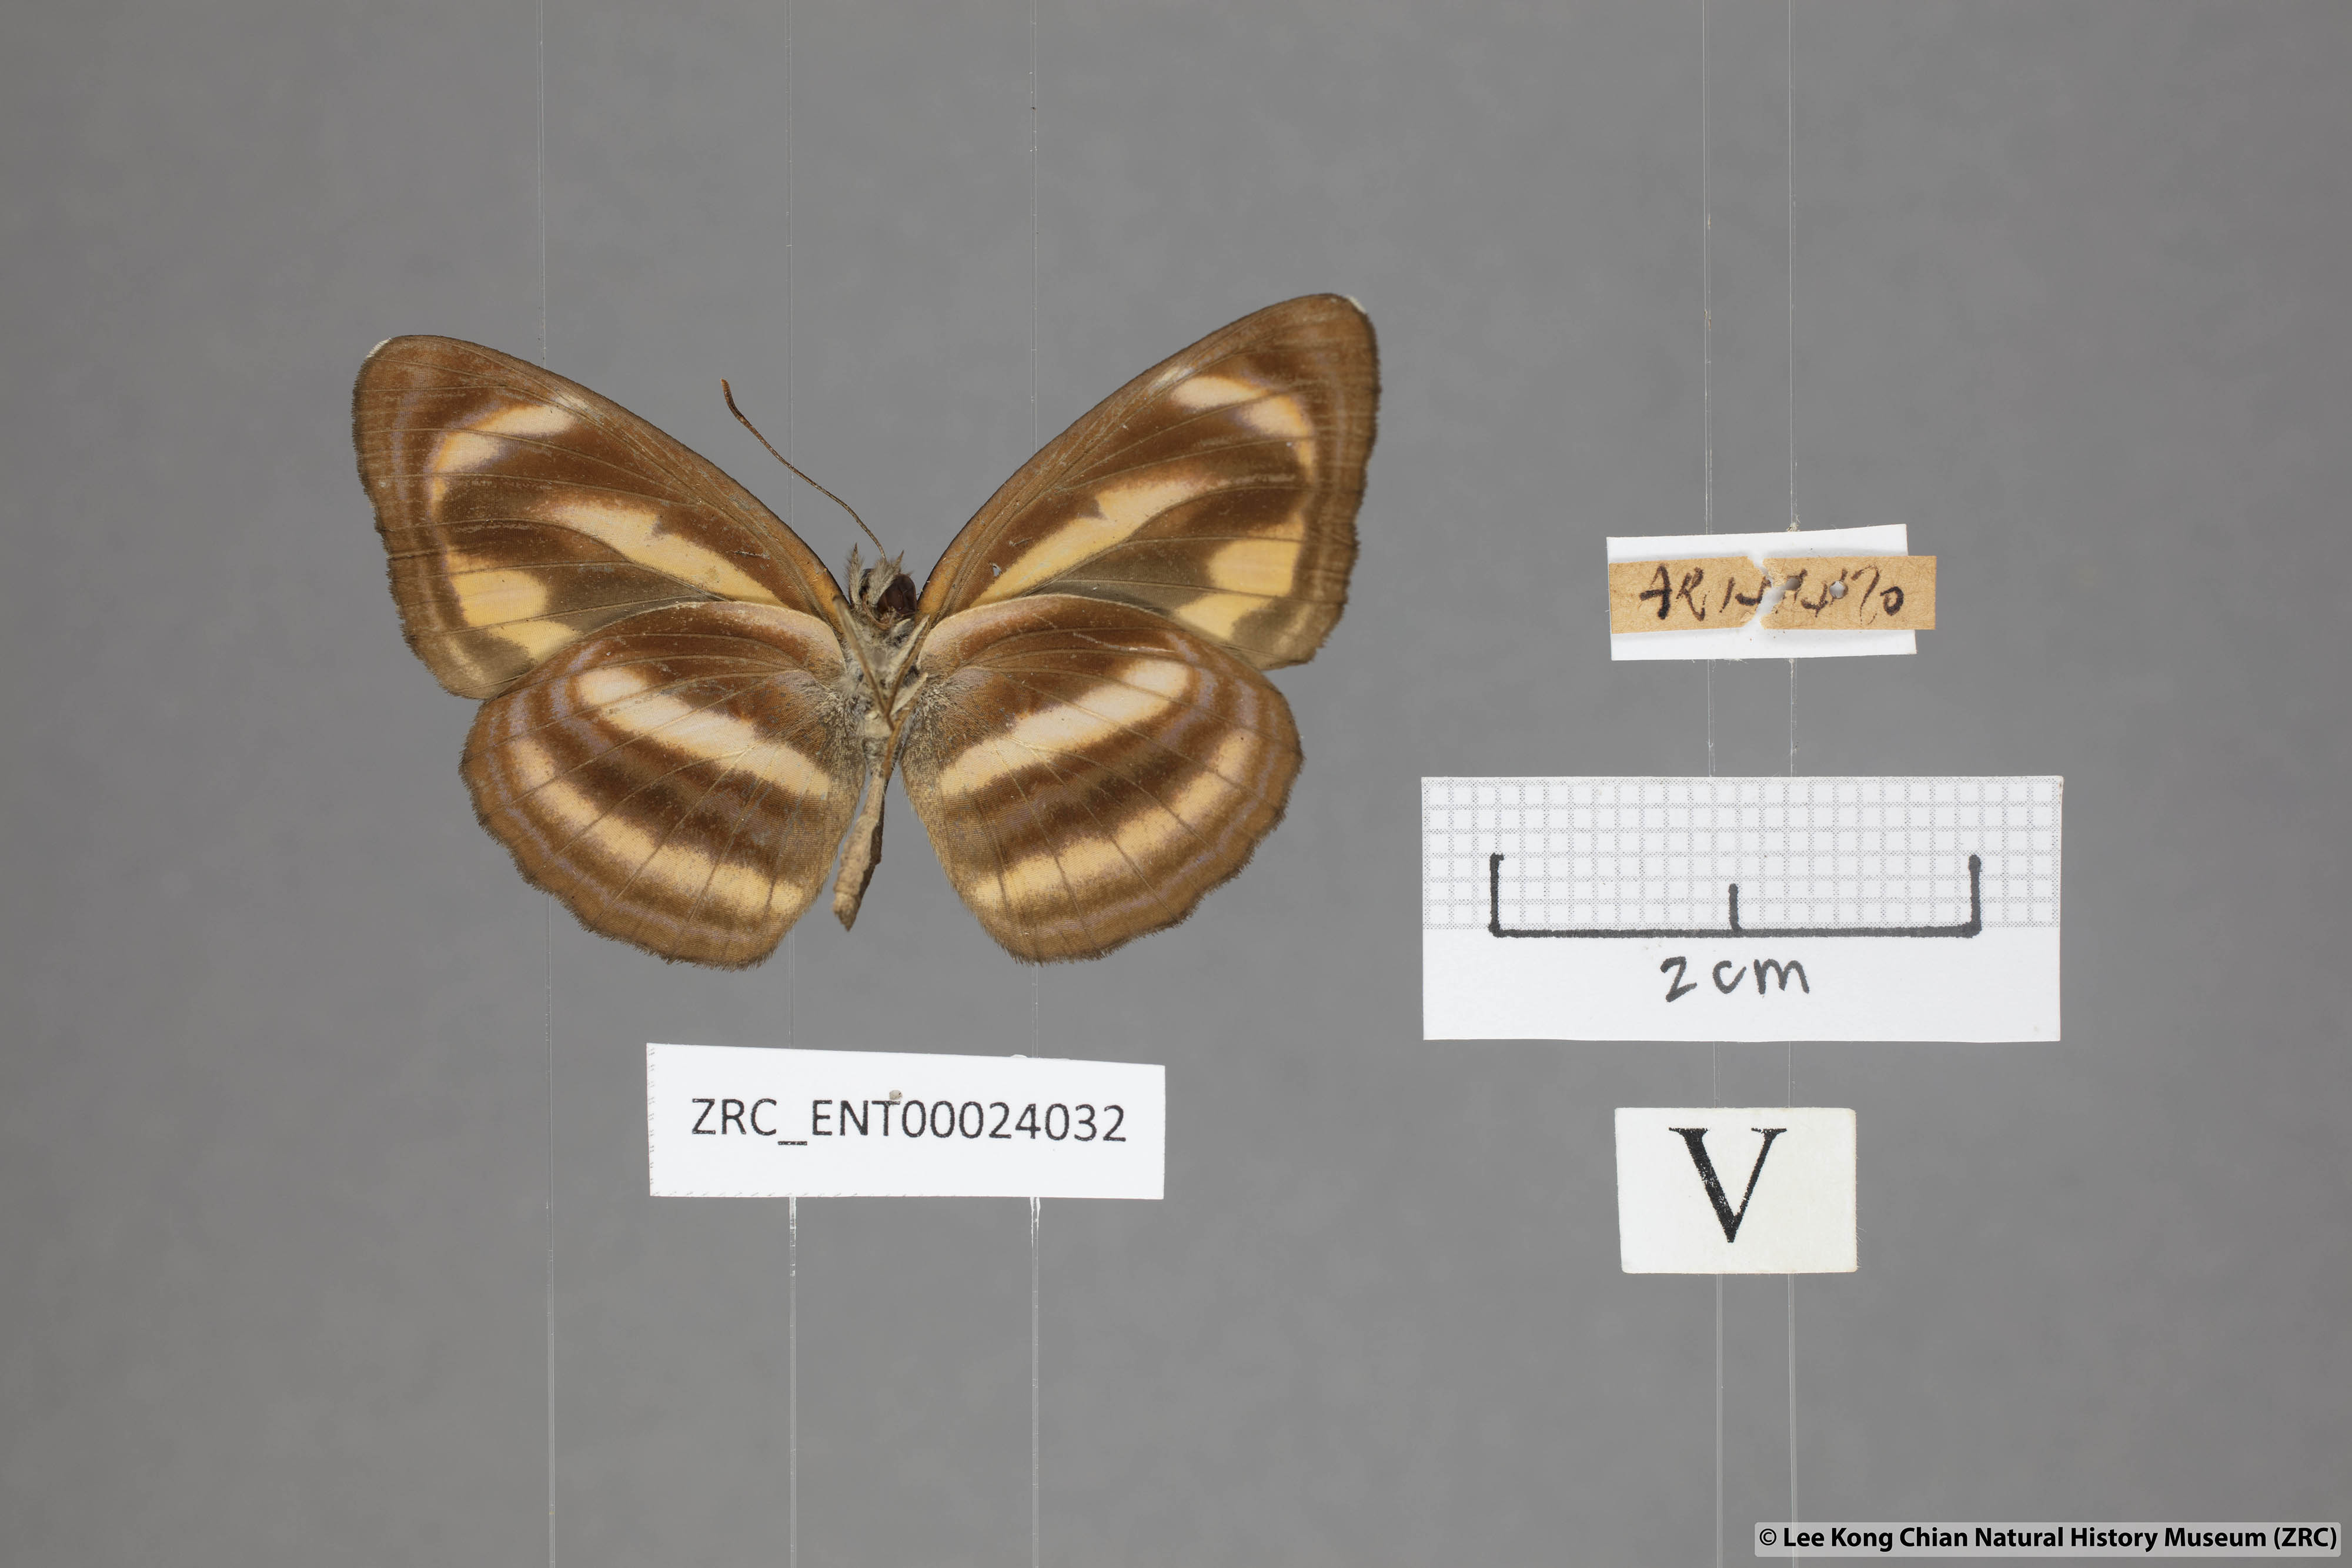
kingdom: Animalia
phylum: Arthropoda
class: Insecta
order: Lepidoptera
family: Nymphalidae
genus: Neptis
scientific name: Neptis miah
